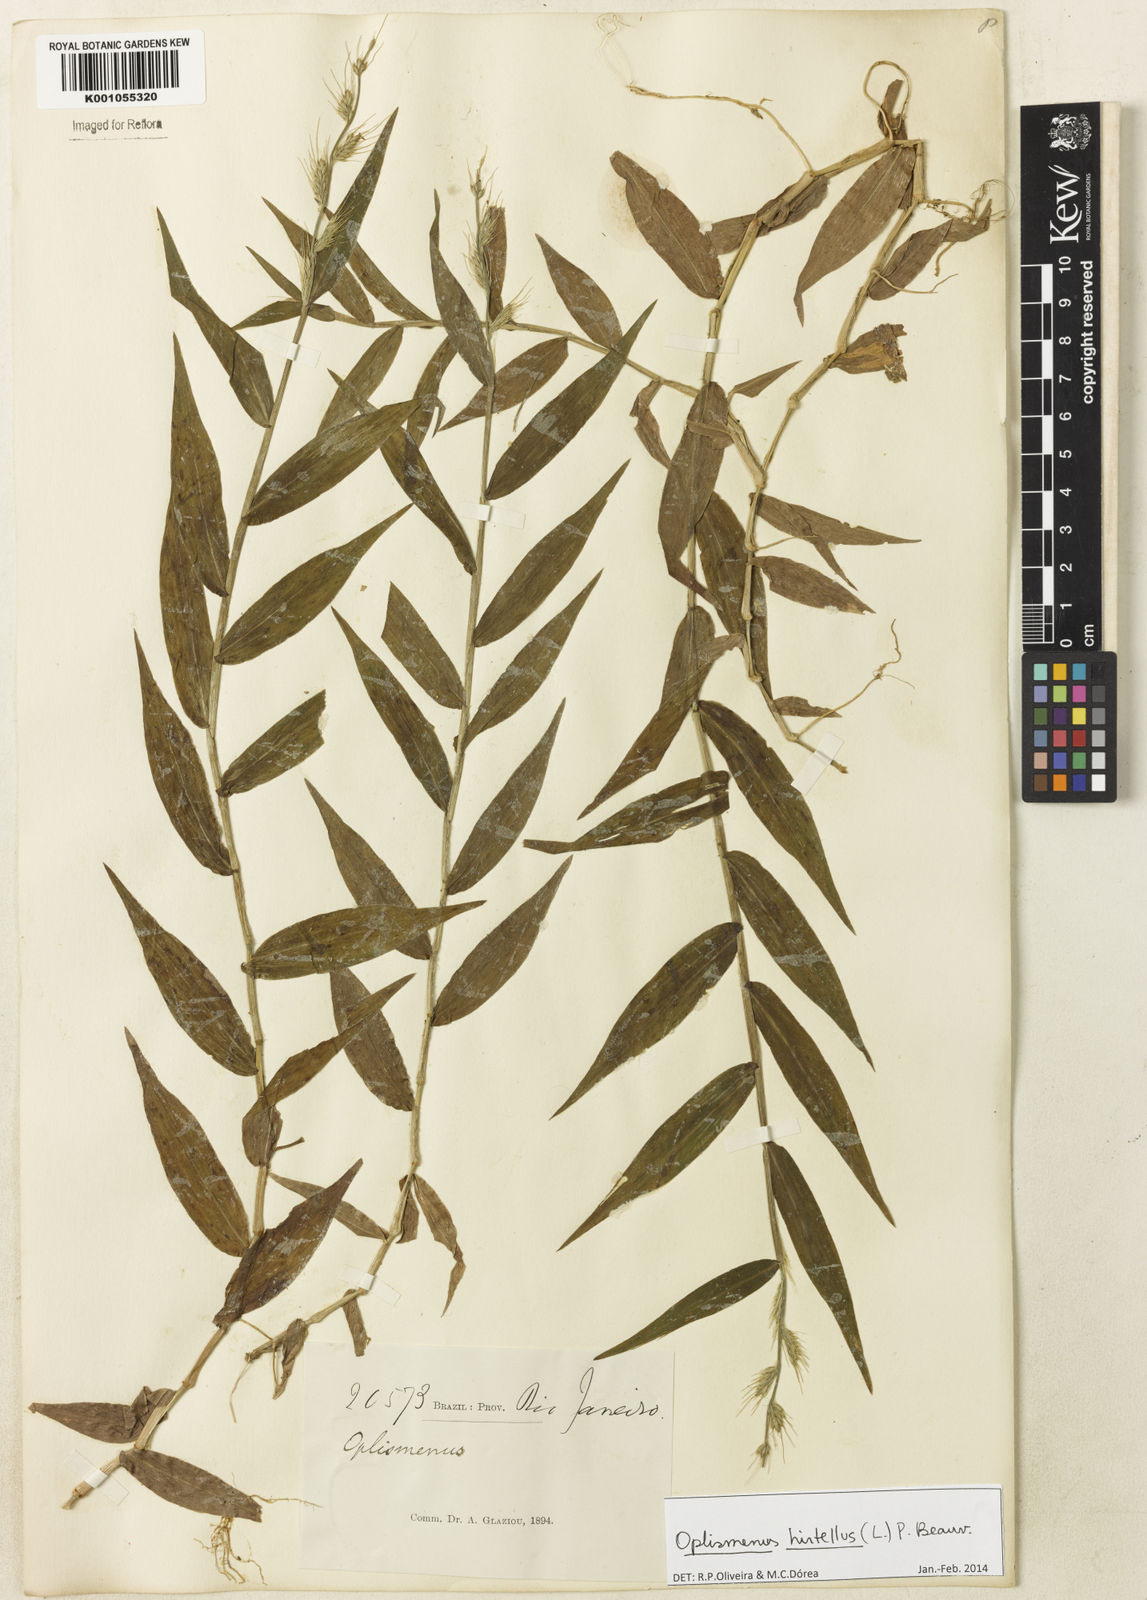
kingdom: Plantae
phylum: Tracheophyta
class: Liliopsida
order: Poales
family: Poaceae
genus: Oplismenus
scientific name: Oplismenus hirtellus
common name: Basketgrass
